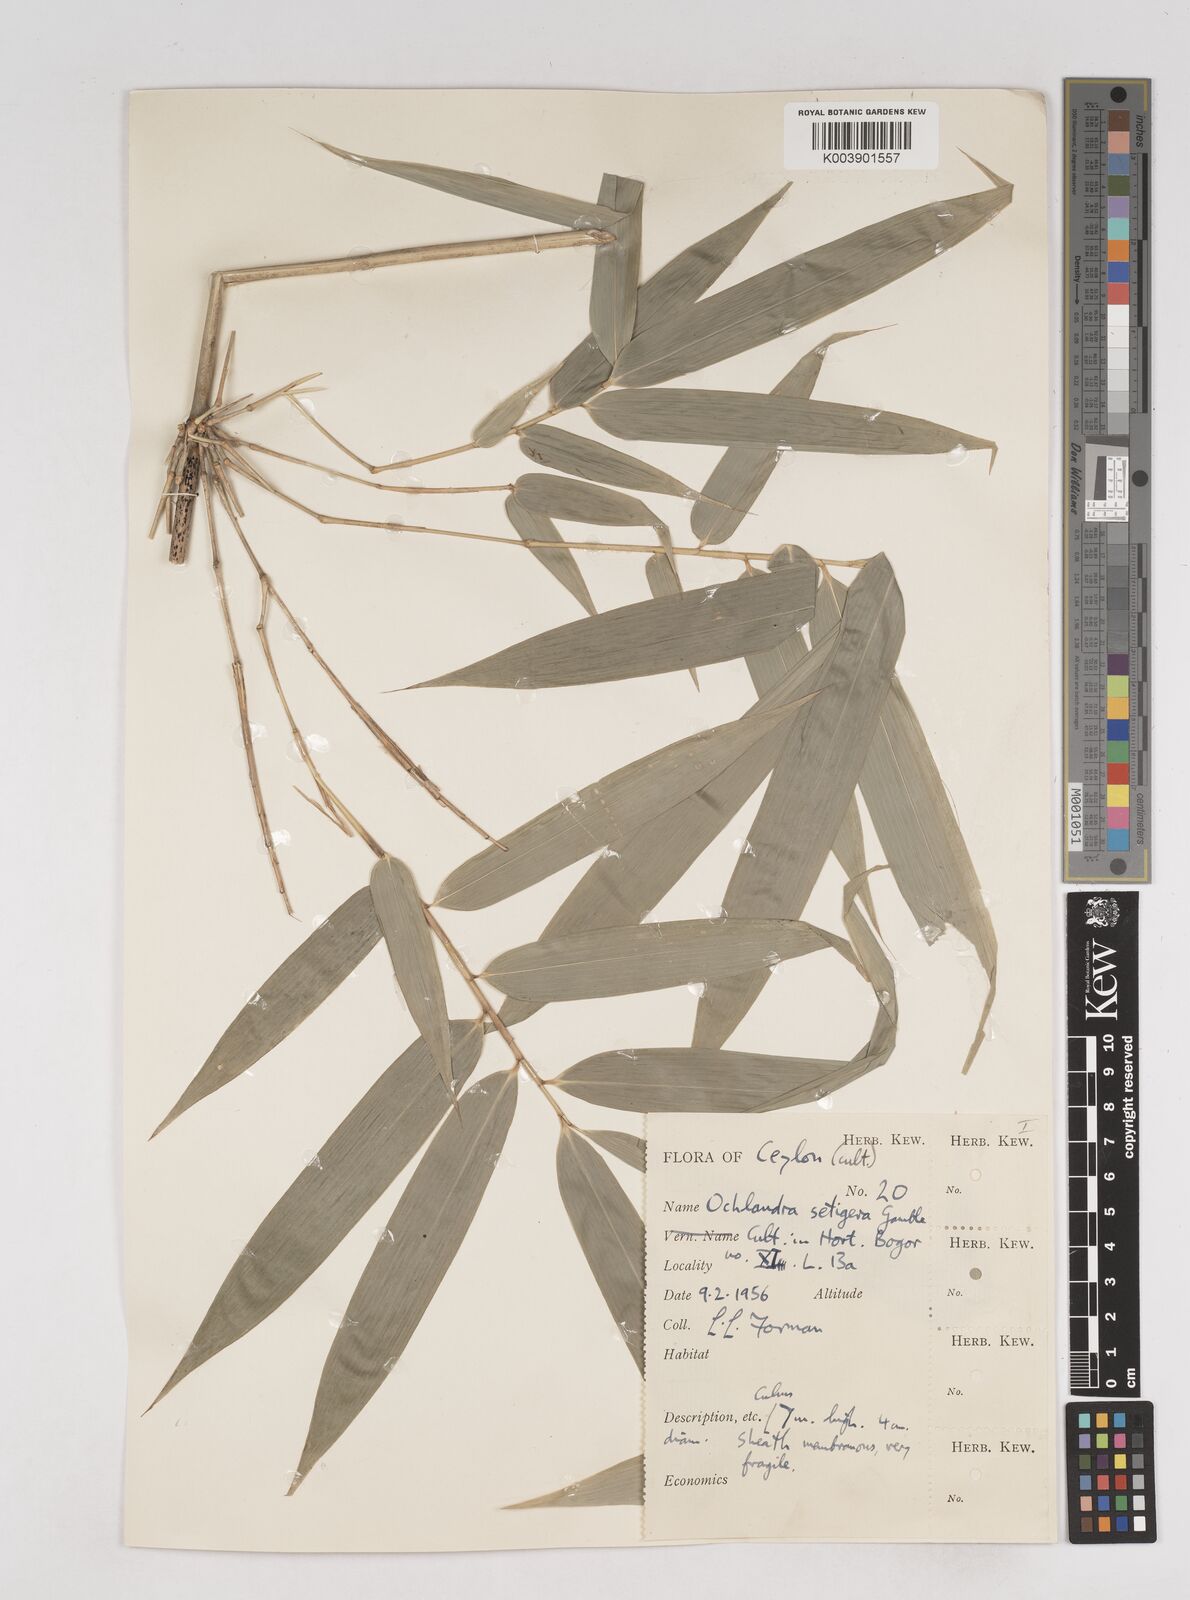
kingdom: Plantae
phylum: Tracheophyta
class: Liliopsida
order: Poales
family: Poaceae
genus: Ochlandra
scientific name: Ochlandra setigera
